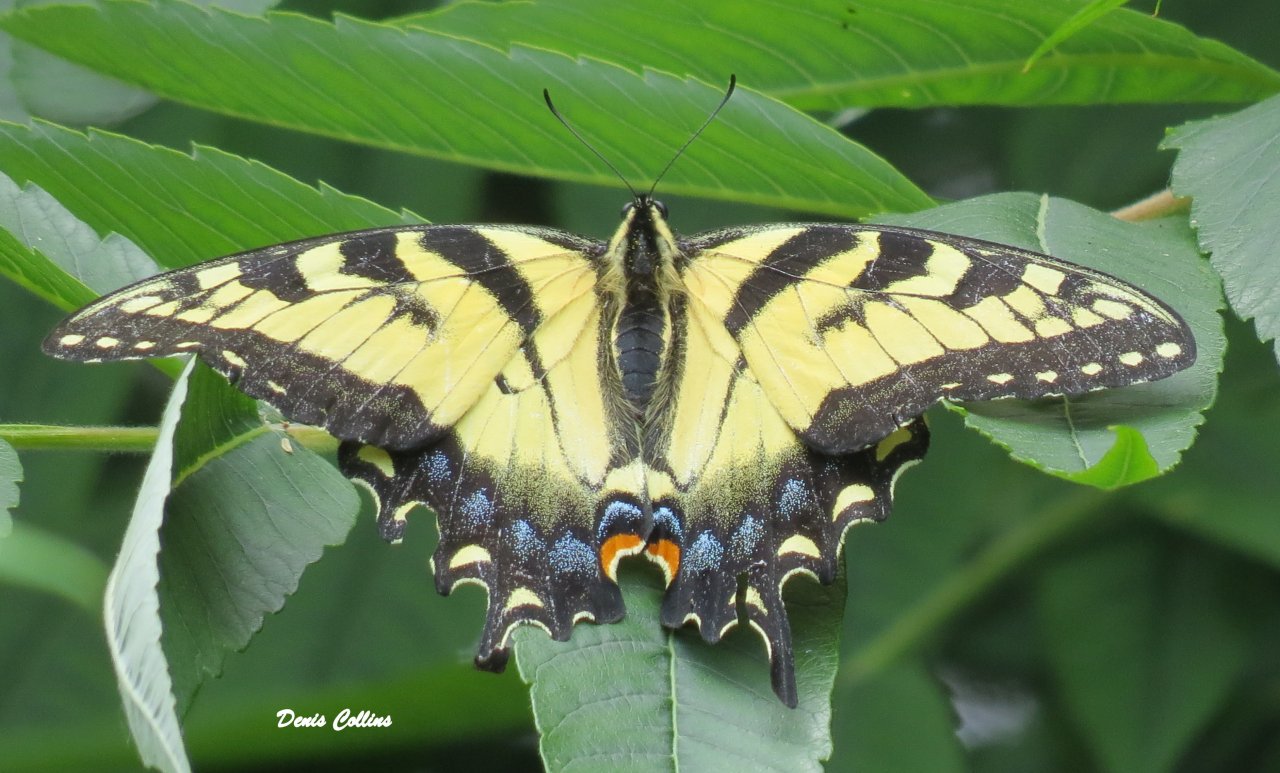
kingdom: Animalia
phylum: Arthropoda
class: Insecta
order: Lepidoptera
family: Papilionidae
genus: Pterourus
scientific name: Pterourus glaucus
